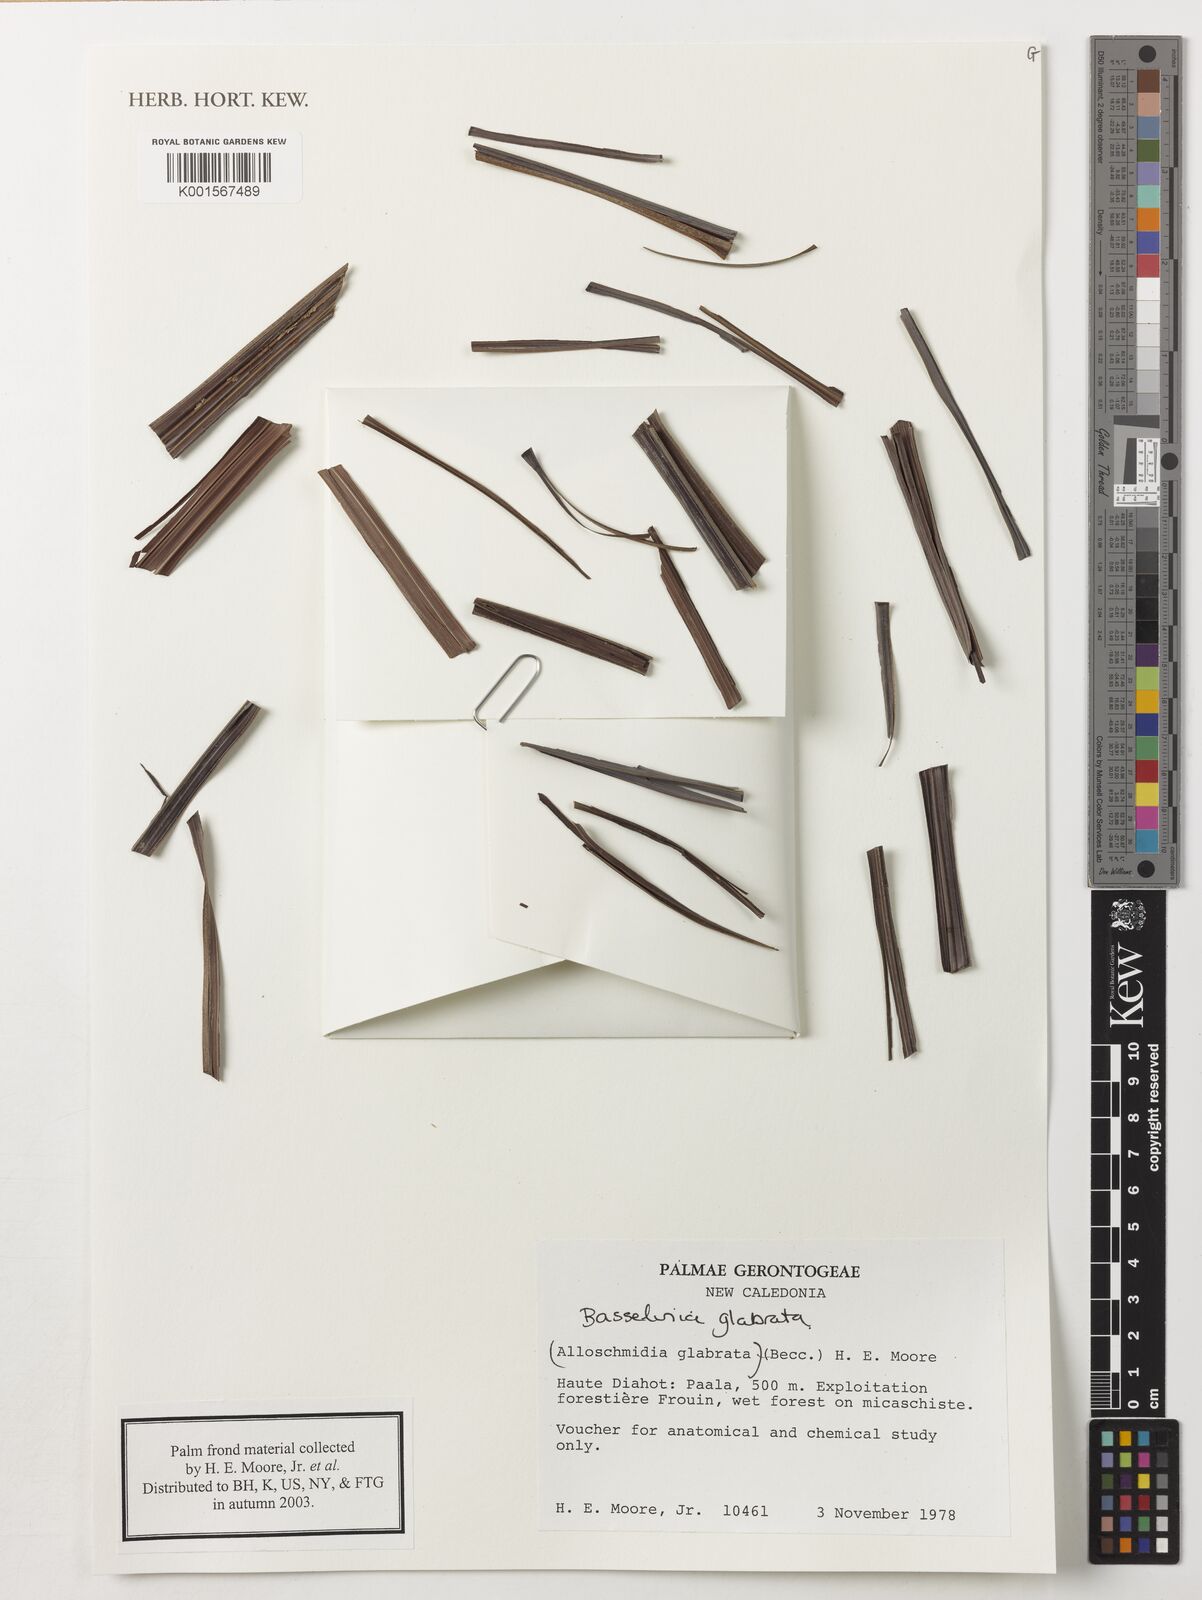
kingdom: Plantae
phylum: Tracheophyta
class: Liliopsida
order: Arecales
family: Arecaceae
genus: Basselinia
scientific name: Basselinia glabrata
